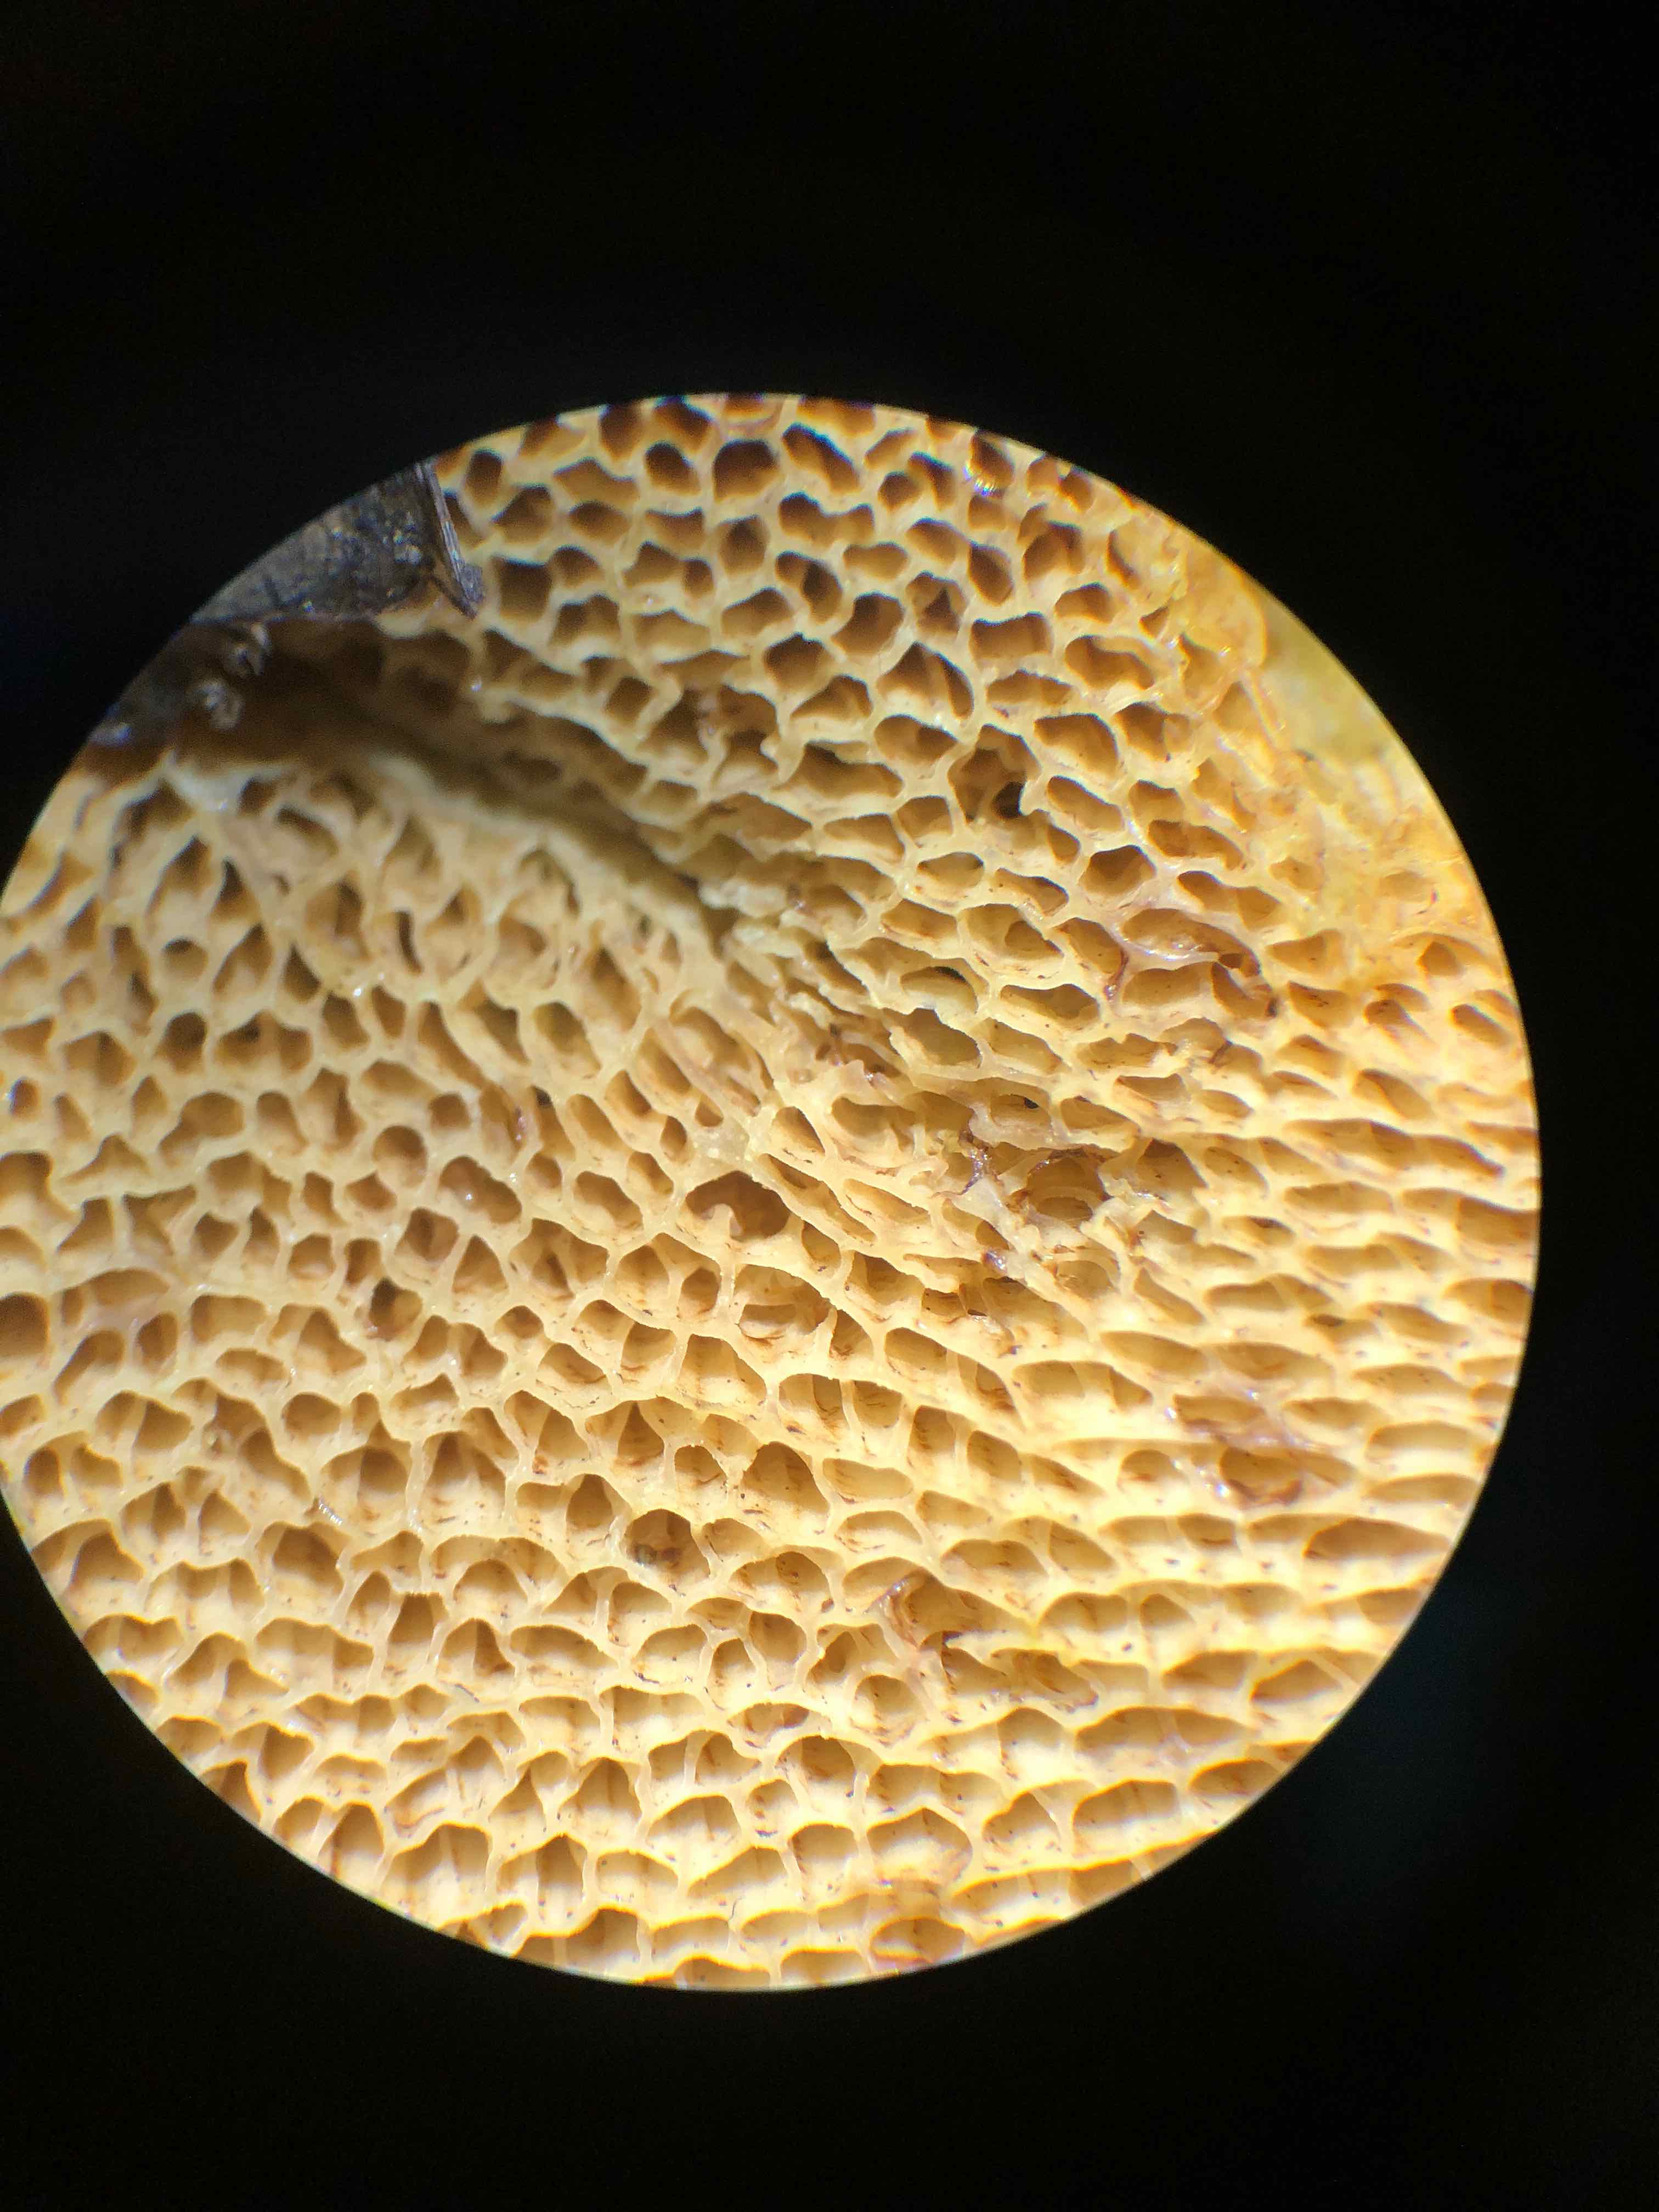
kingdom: Fungi
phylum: Basidiomycota
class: Agaricomycetes
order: Boletales
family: Suillaceae
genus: Suillus
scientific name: Suillus bovinus
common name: grovporet slimrørhat
